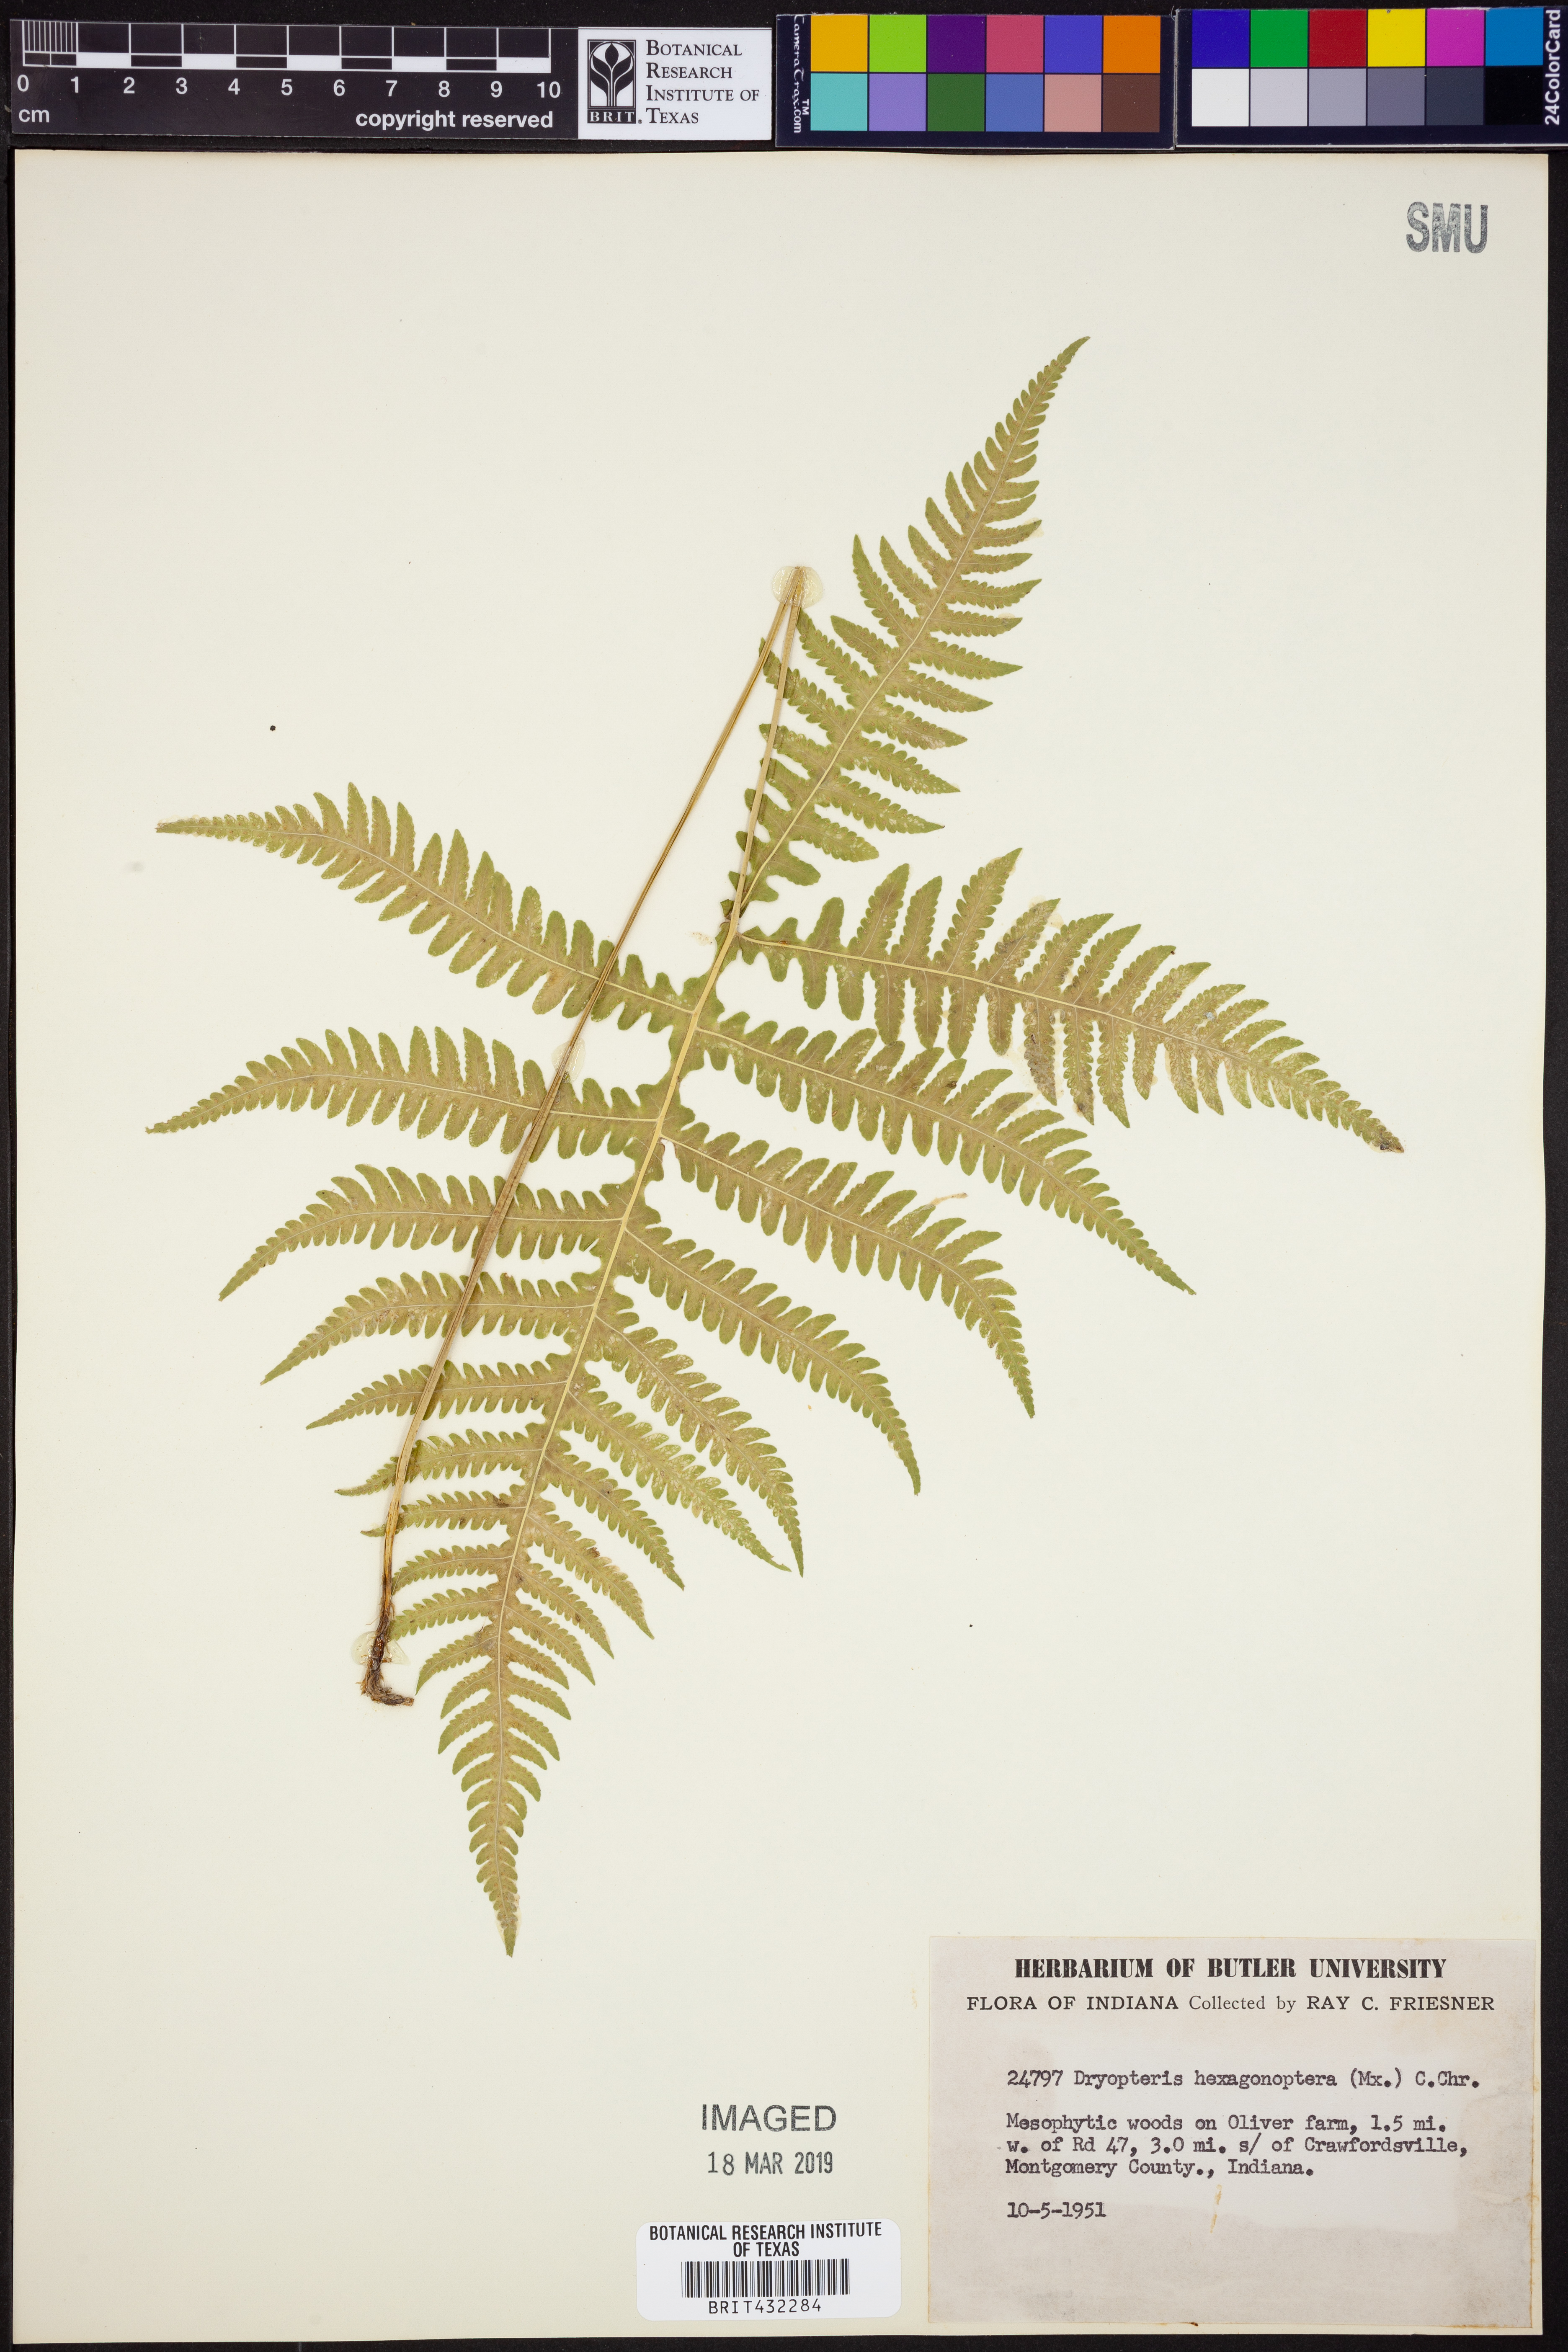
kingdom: Plantae
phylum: Tracheophyta
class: Polypodiopsida
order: Polypodiales
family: Dryopteridaceae
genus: Dryopteris
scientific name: Dryopteris hexagonaptera
